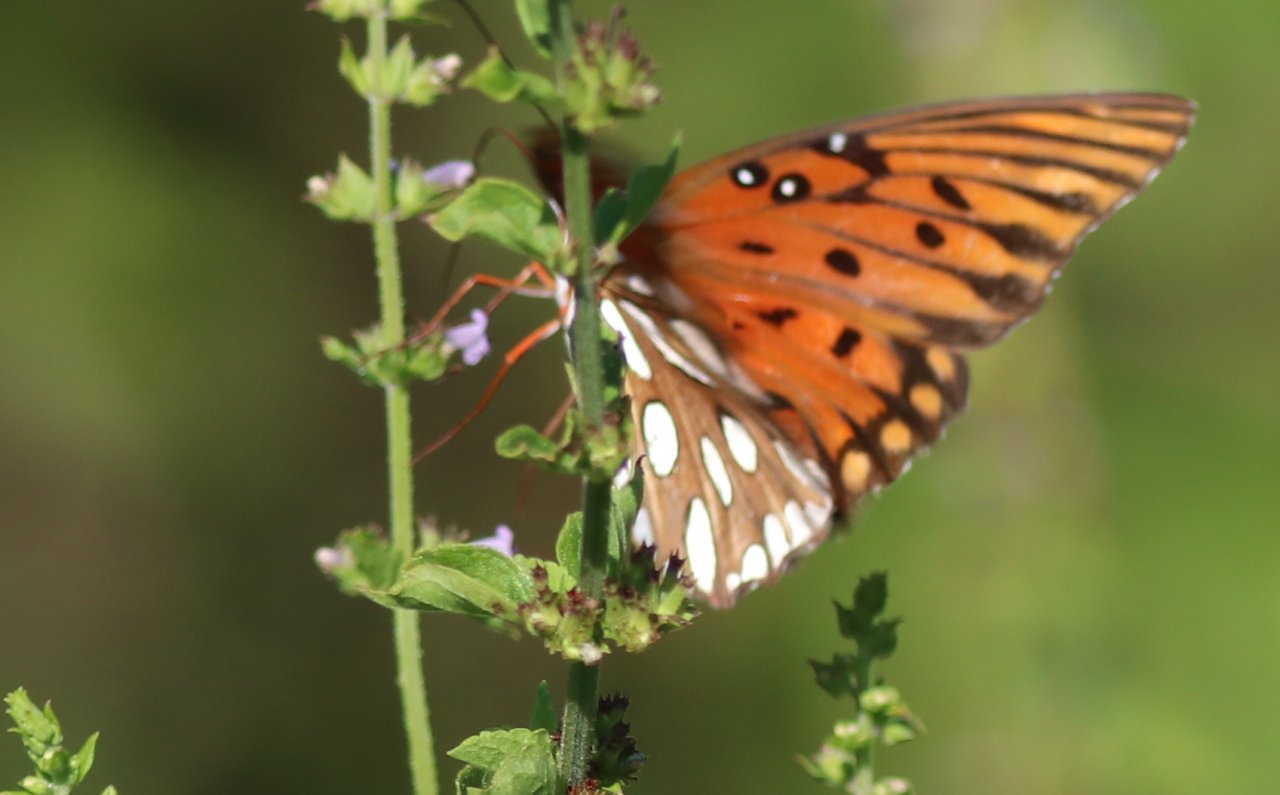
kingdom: Animalia
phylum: Arthropoda
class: Insecta
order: Lepidoptera
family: Nymphalidae
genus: Dione
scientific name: Dione vanillae
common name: Gulf Fritillary
